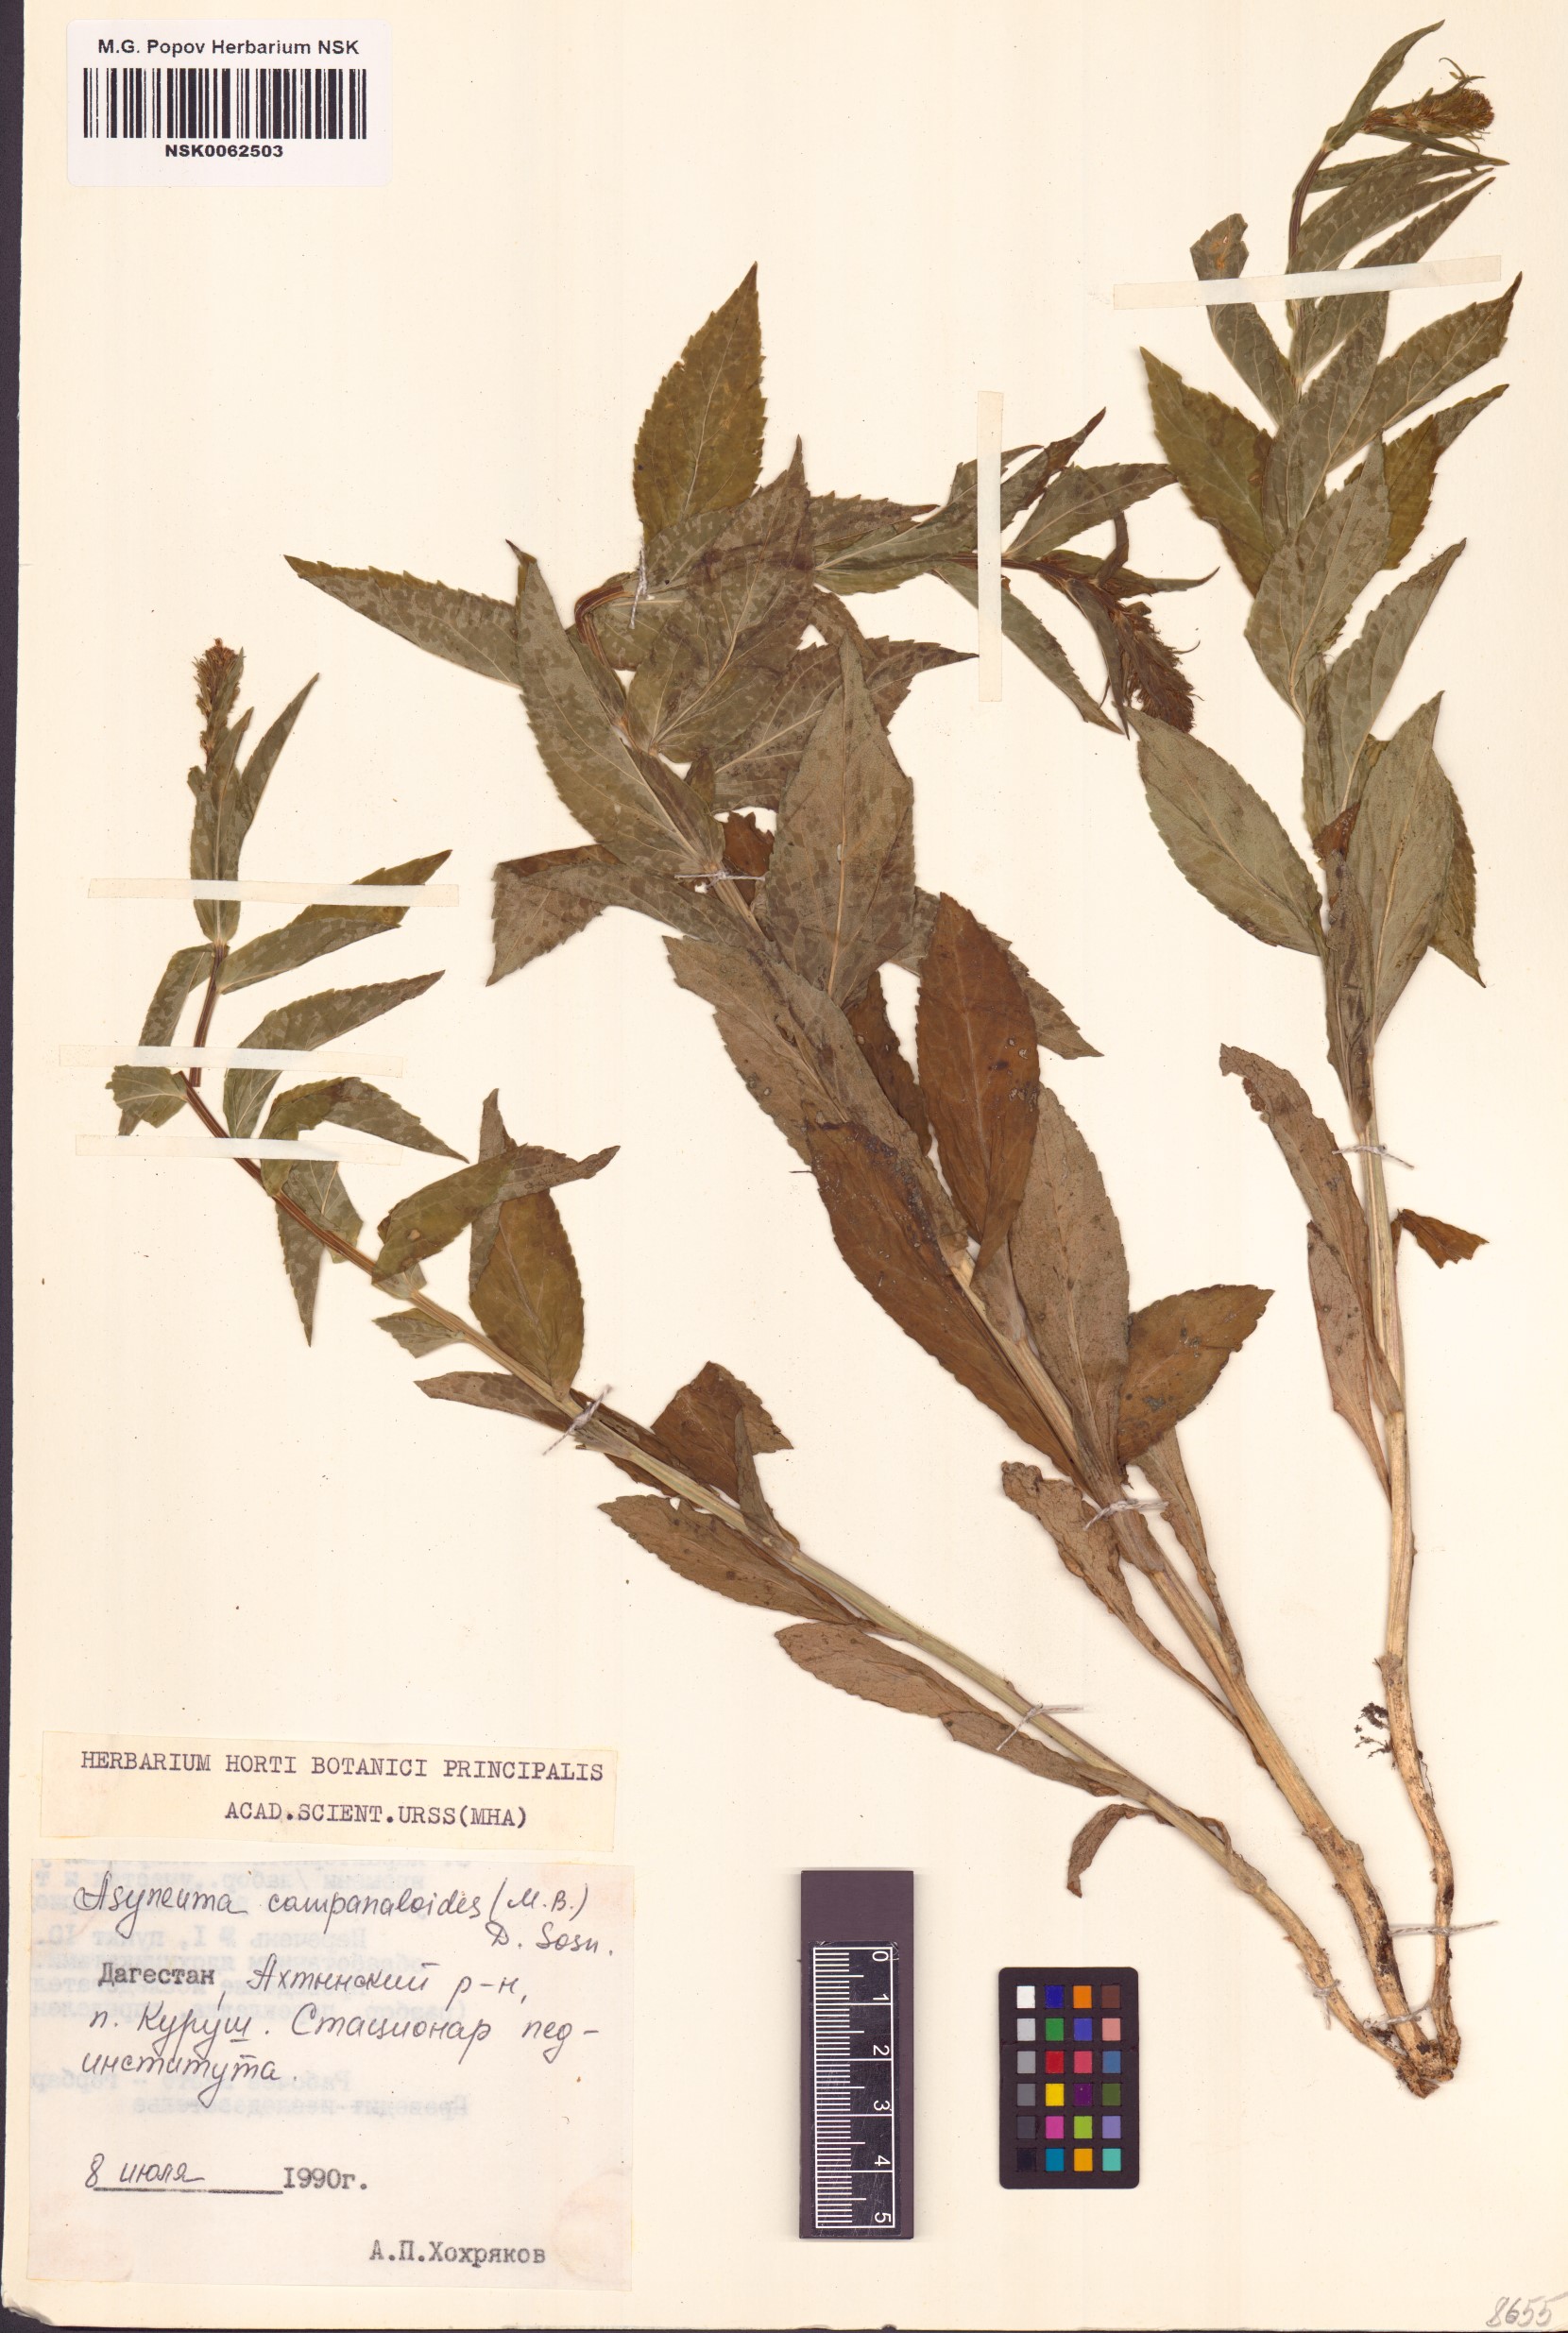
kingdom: Plantae
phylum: Tracheophyta
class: Magnoliopsida
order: Asterales
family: Campanulaceae
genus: Asyneuma
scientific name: Asyneuma campanuloides
